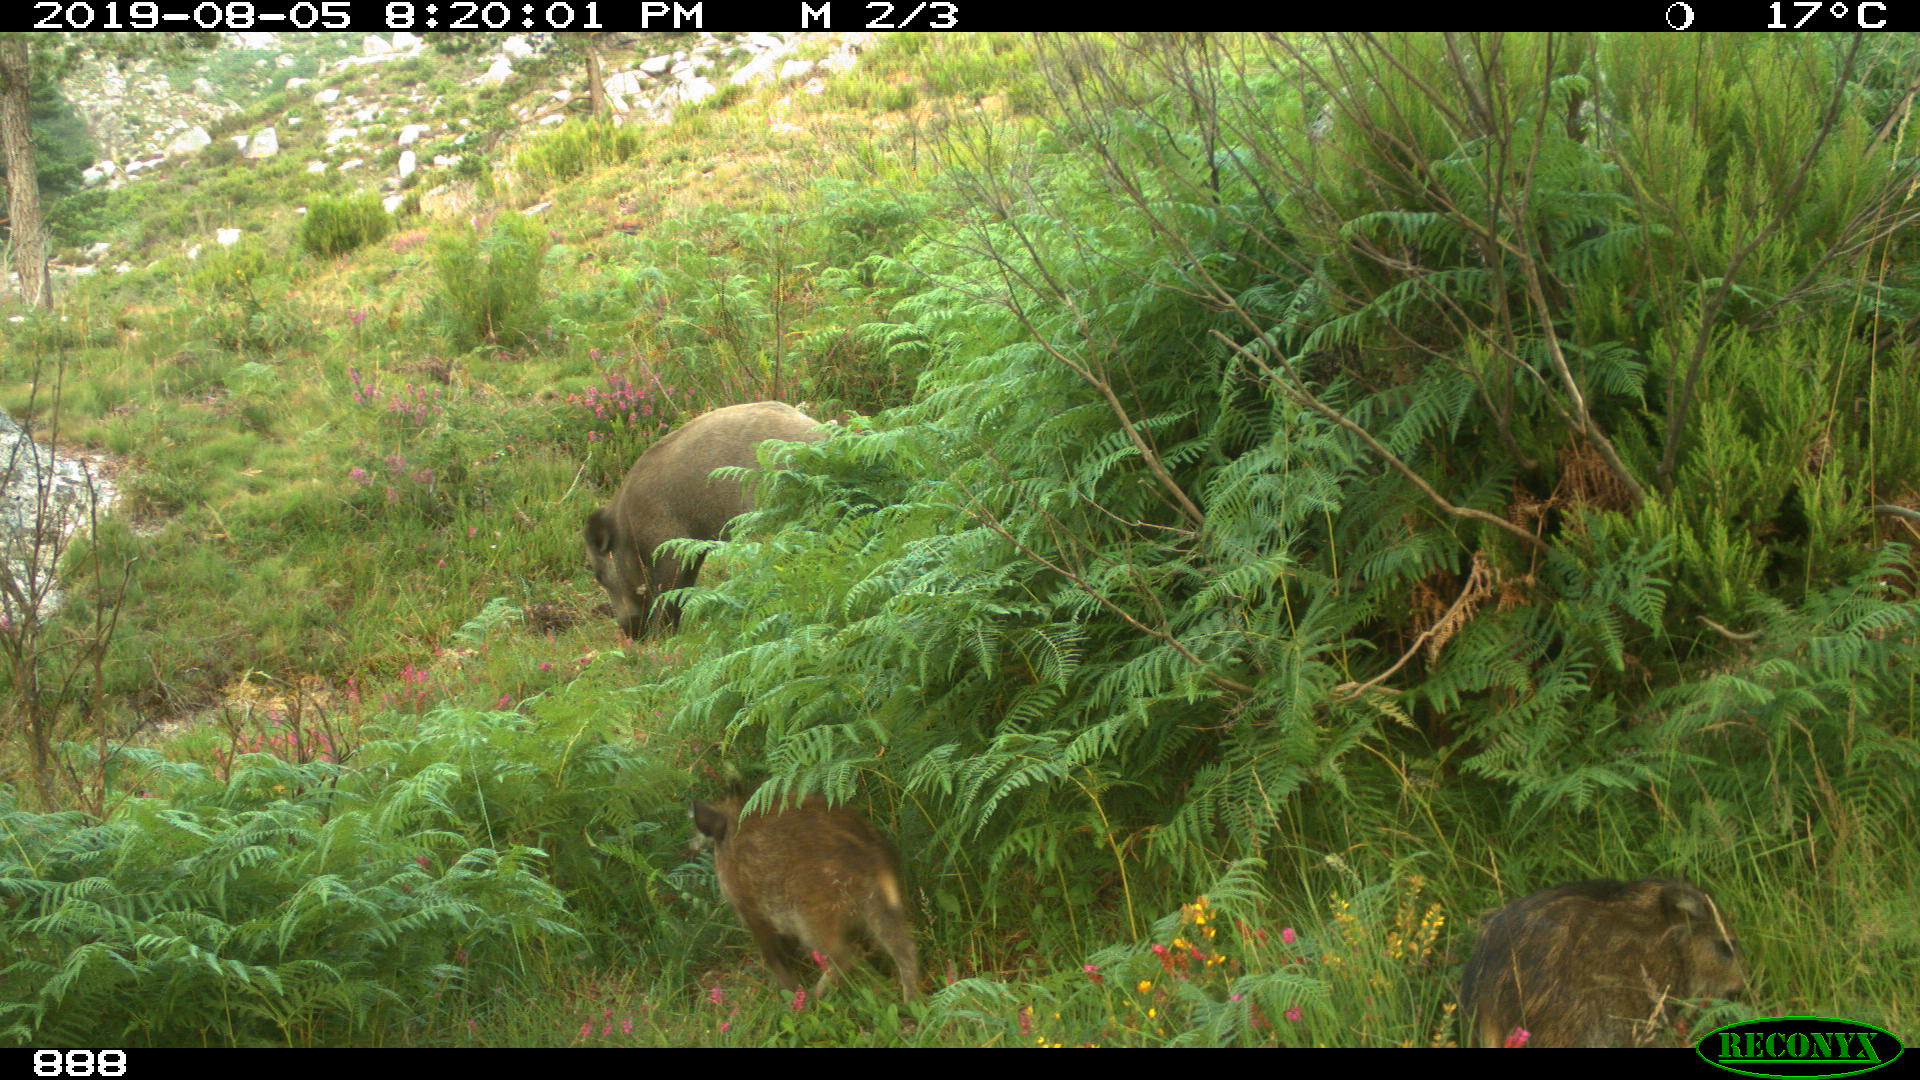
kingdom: Animalia
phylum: Chordata
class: Mammalia
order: Artiodactyla
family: Suidae
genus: Sus
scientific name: Sus scrofa
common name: Wild boar
